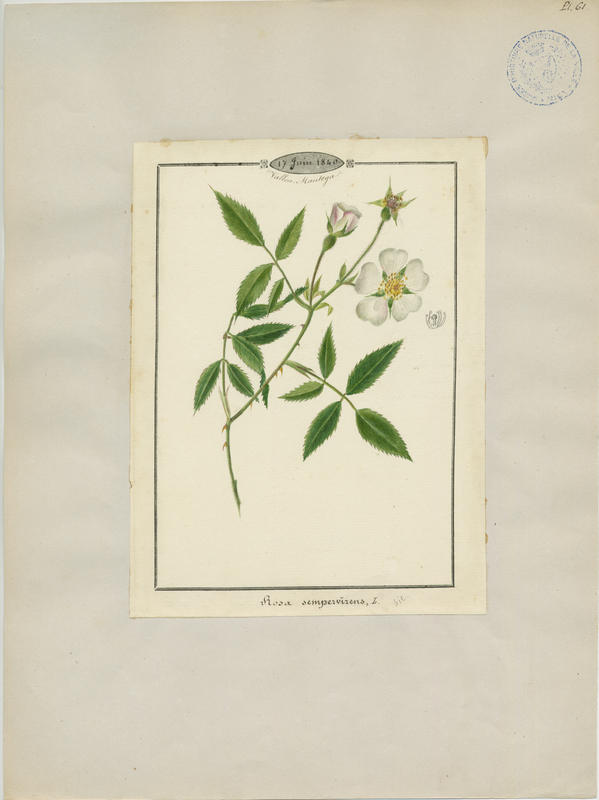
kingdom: Plantae
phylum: Tracheophyta
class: Magnoliopsida
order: Rosales
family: Rosaceae
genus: Rosa
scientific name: Rosa sempervirens
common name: Evergreen rose
